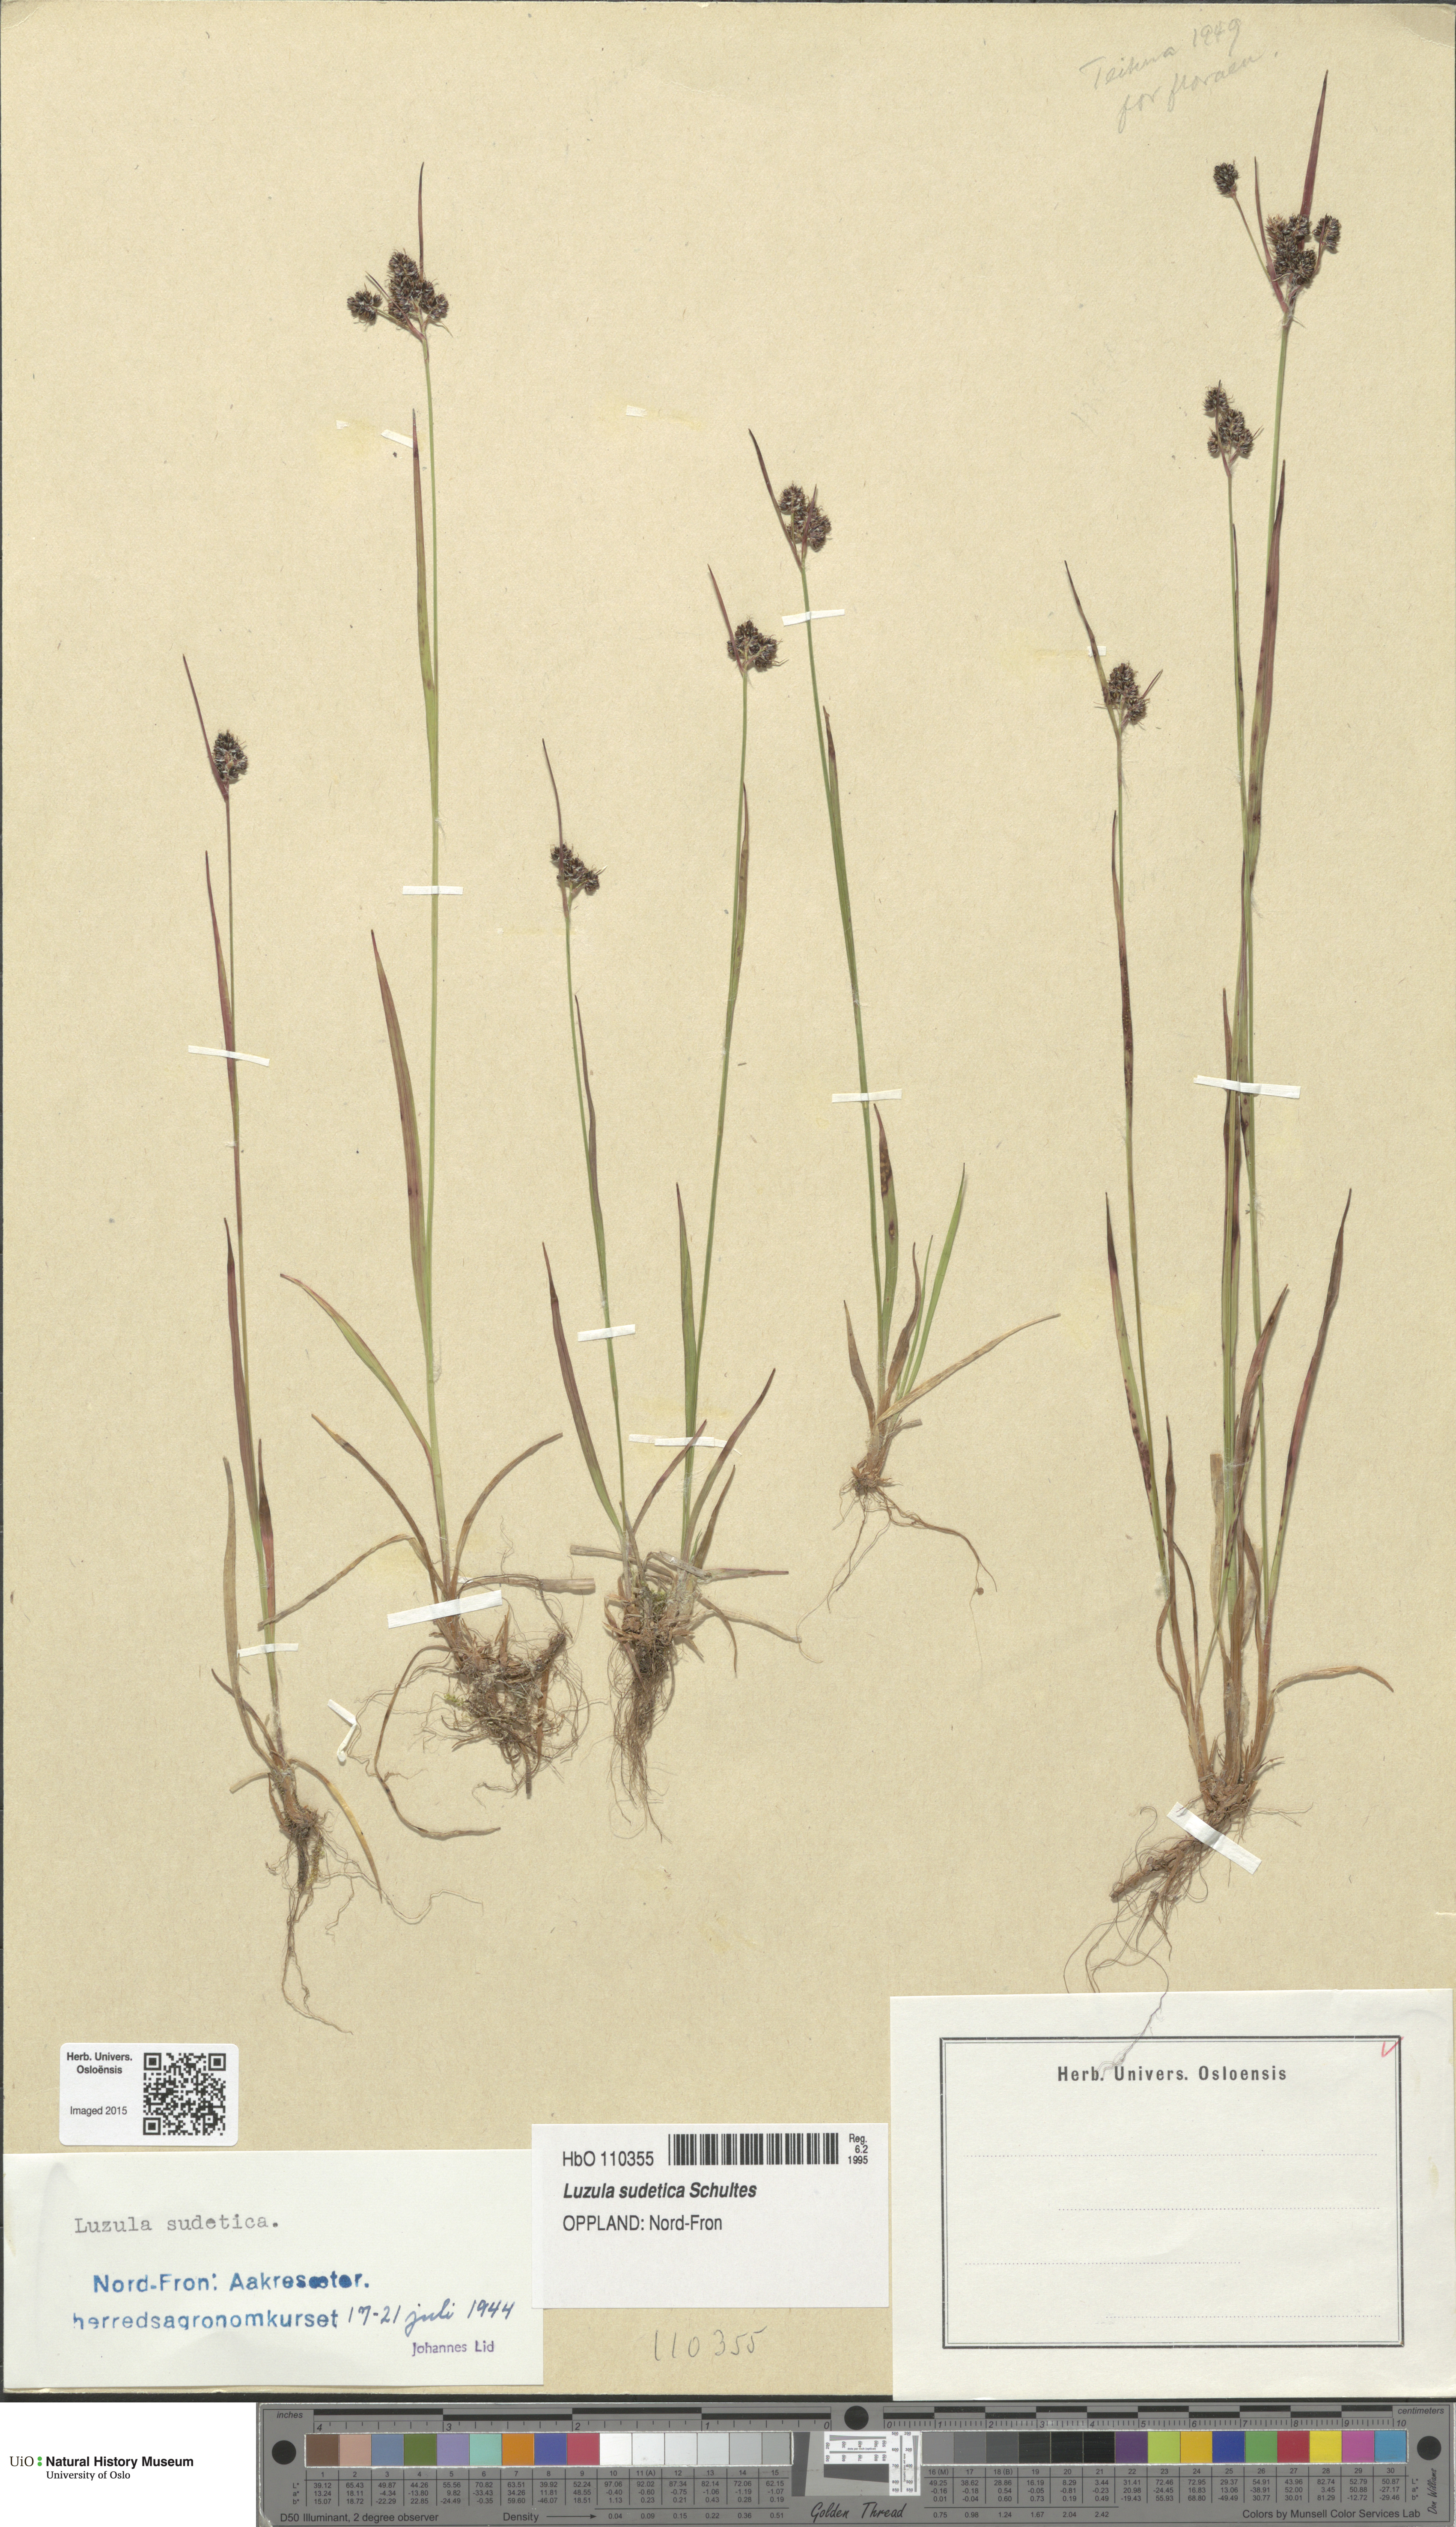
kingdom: Plantae
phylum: Tracheophyta
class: Liliopsida
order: Poales
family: Juncaceae
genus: Luzula
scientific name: Luzula sudetica
